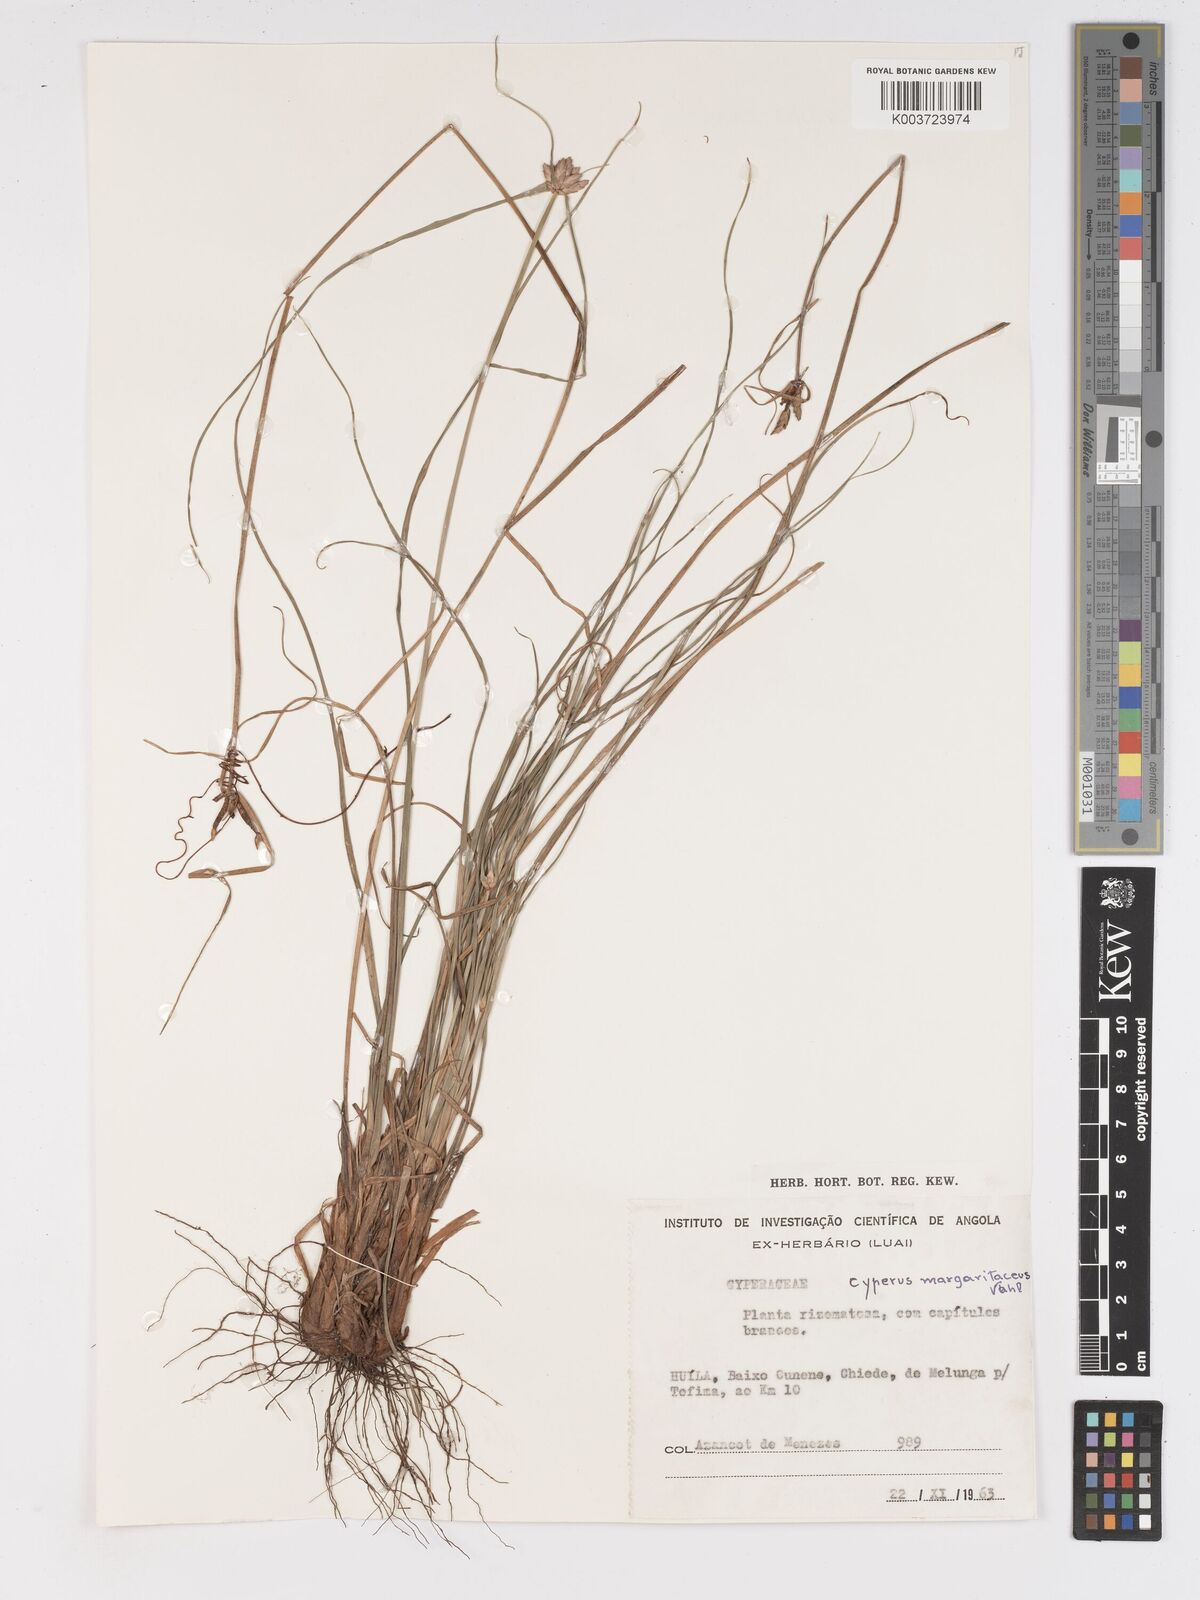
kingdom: Plantae
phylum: Tracheophyta
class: Liliopsida
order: Poales
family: Cyperaceae
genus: Cyperus
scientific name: Cyperus margaritaceus
